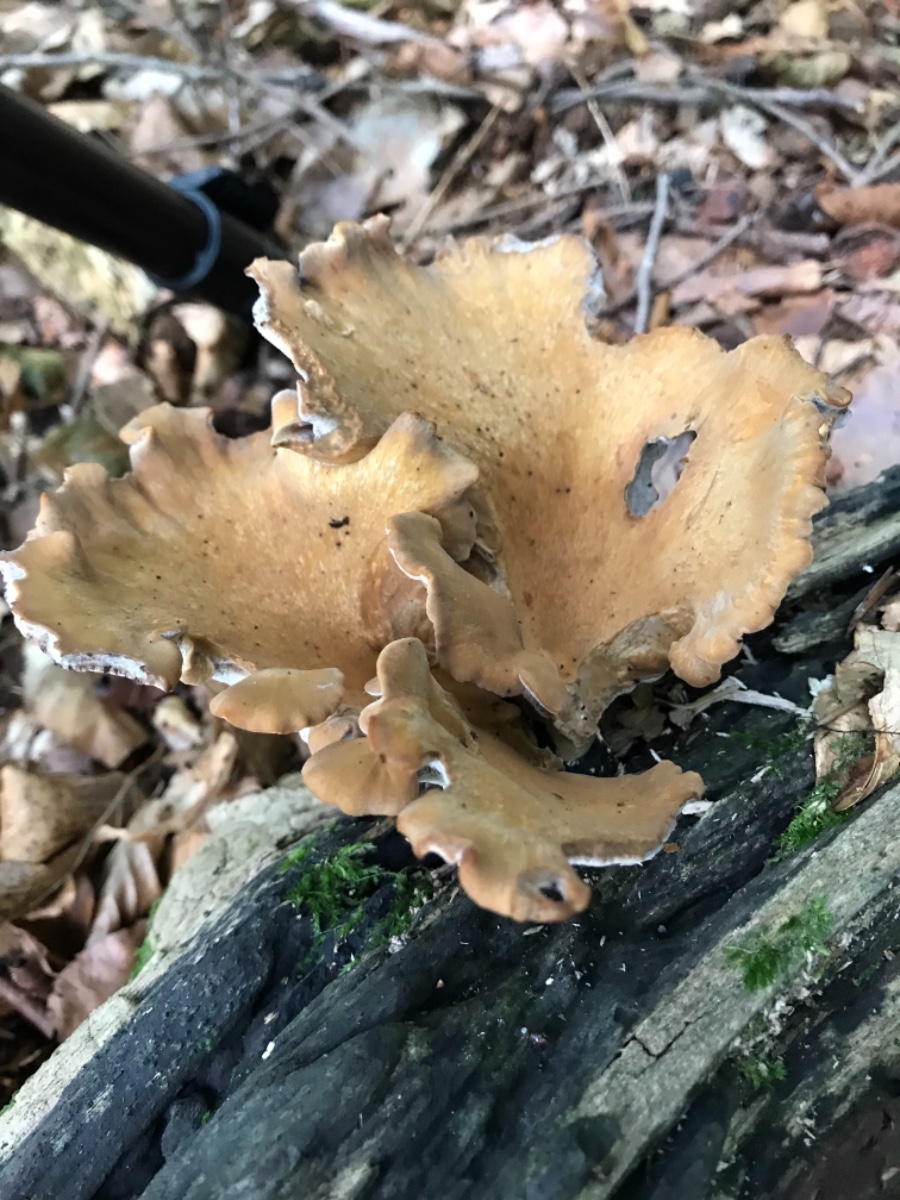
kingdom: Fungi
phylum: Basidiomycota
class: Agaricomycetes
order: Polyporales
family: Polyporaceae
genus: Cerioporus
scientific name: Cerioporus varius
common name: foranderlig stilkporesvamp
